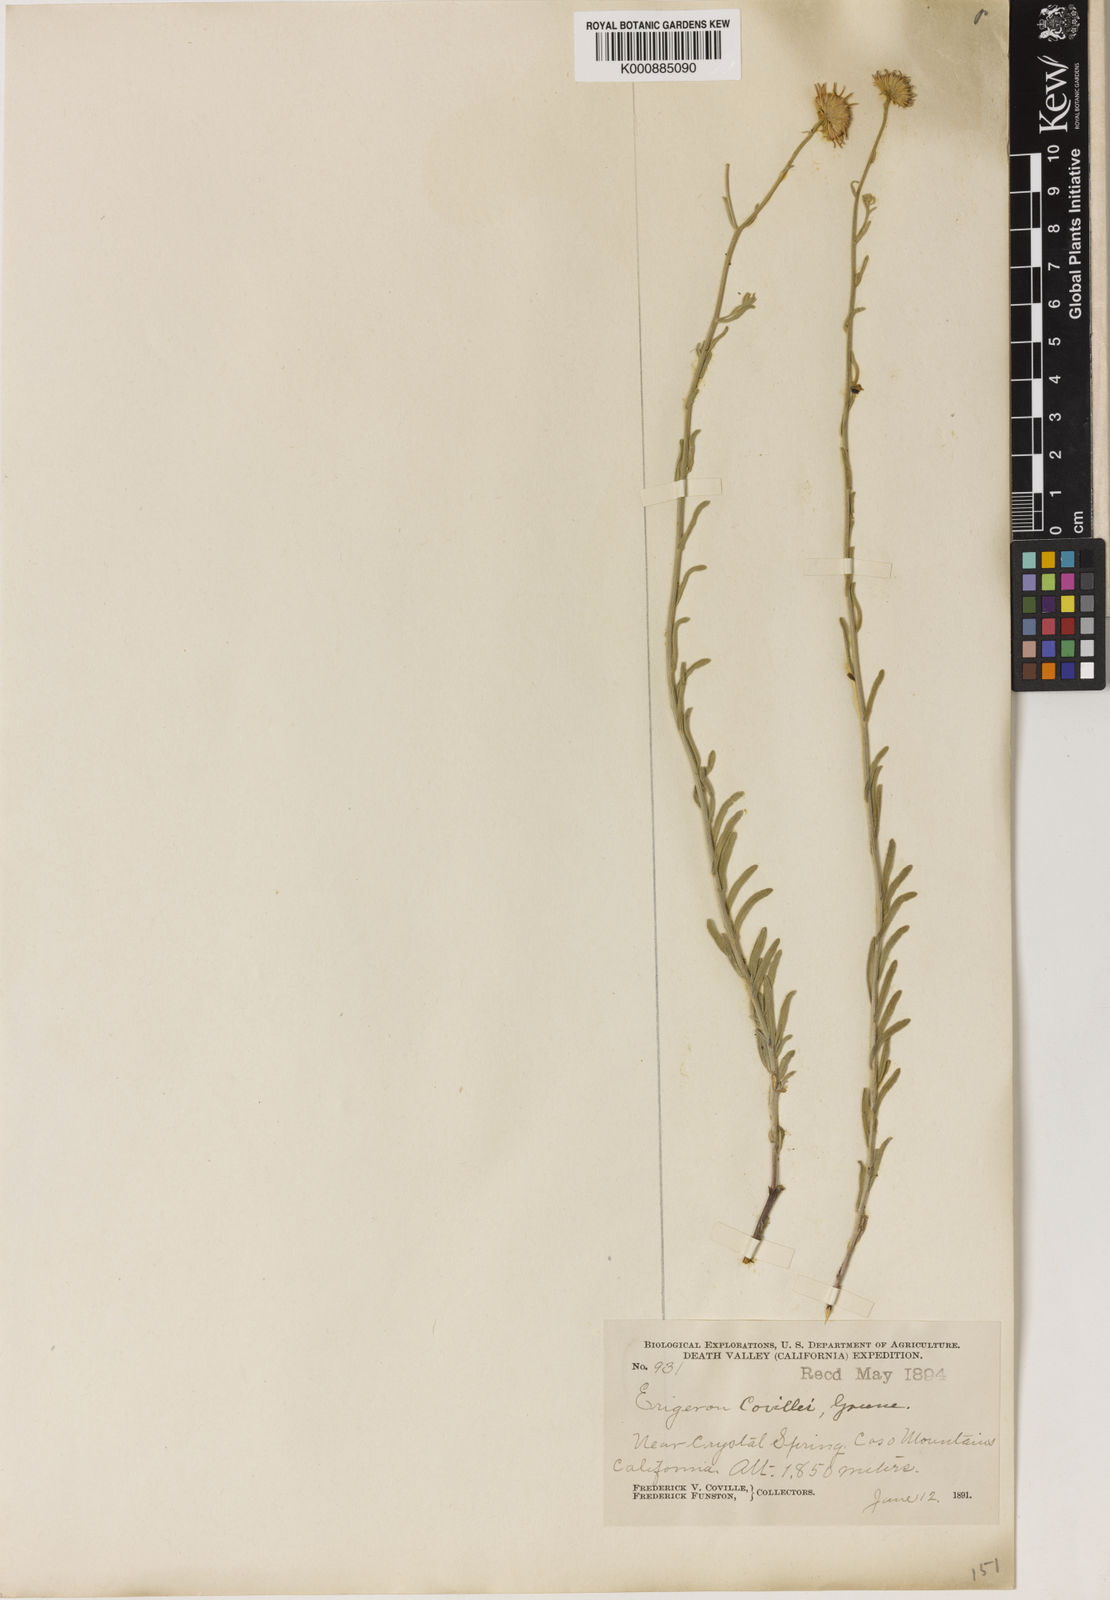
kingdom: Plantae
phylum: Tracheophyta
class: Magnoliopsida
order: Asterales
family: Asteraceae
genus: Erigeron
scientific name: Erigeron breweri
